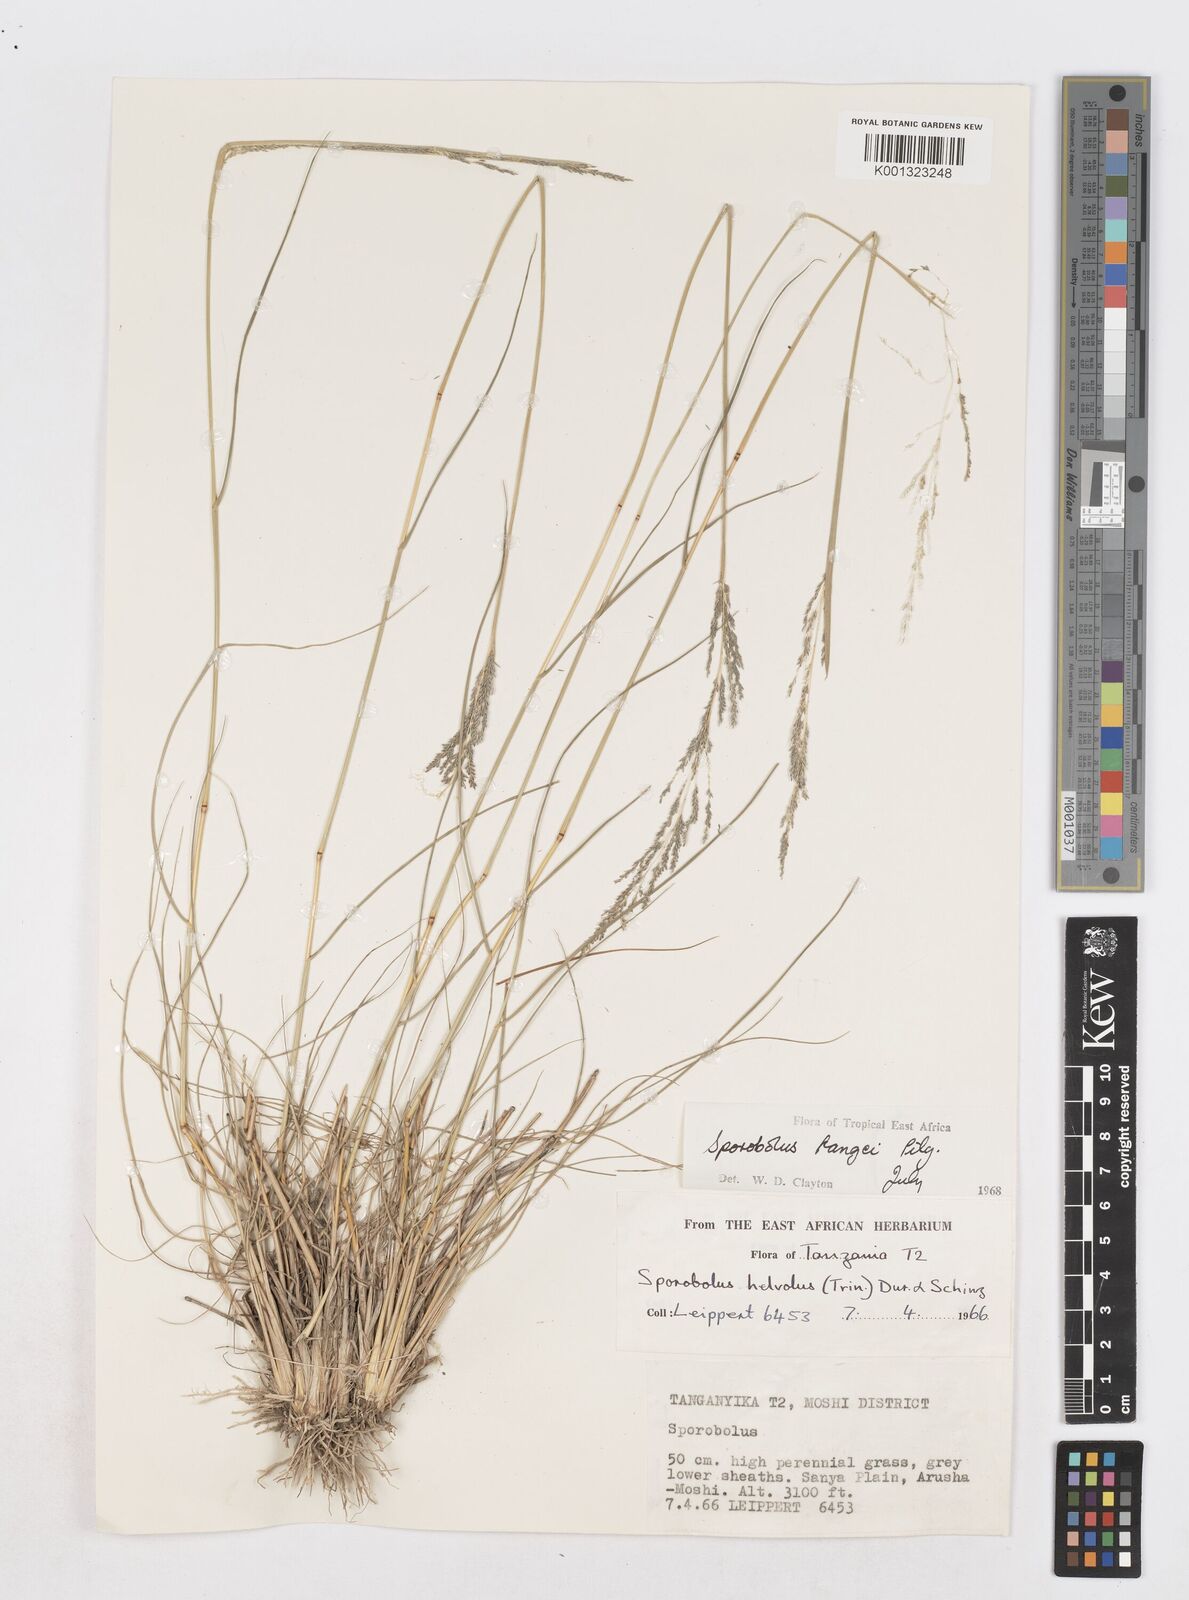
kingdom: Plantae
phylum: Tracheophyta
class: Liliopsida
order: Poales
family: Poaceae
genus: Sporobolus
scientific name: Sporobolus ioclados
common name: Pan dropseed
